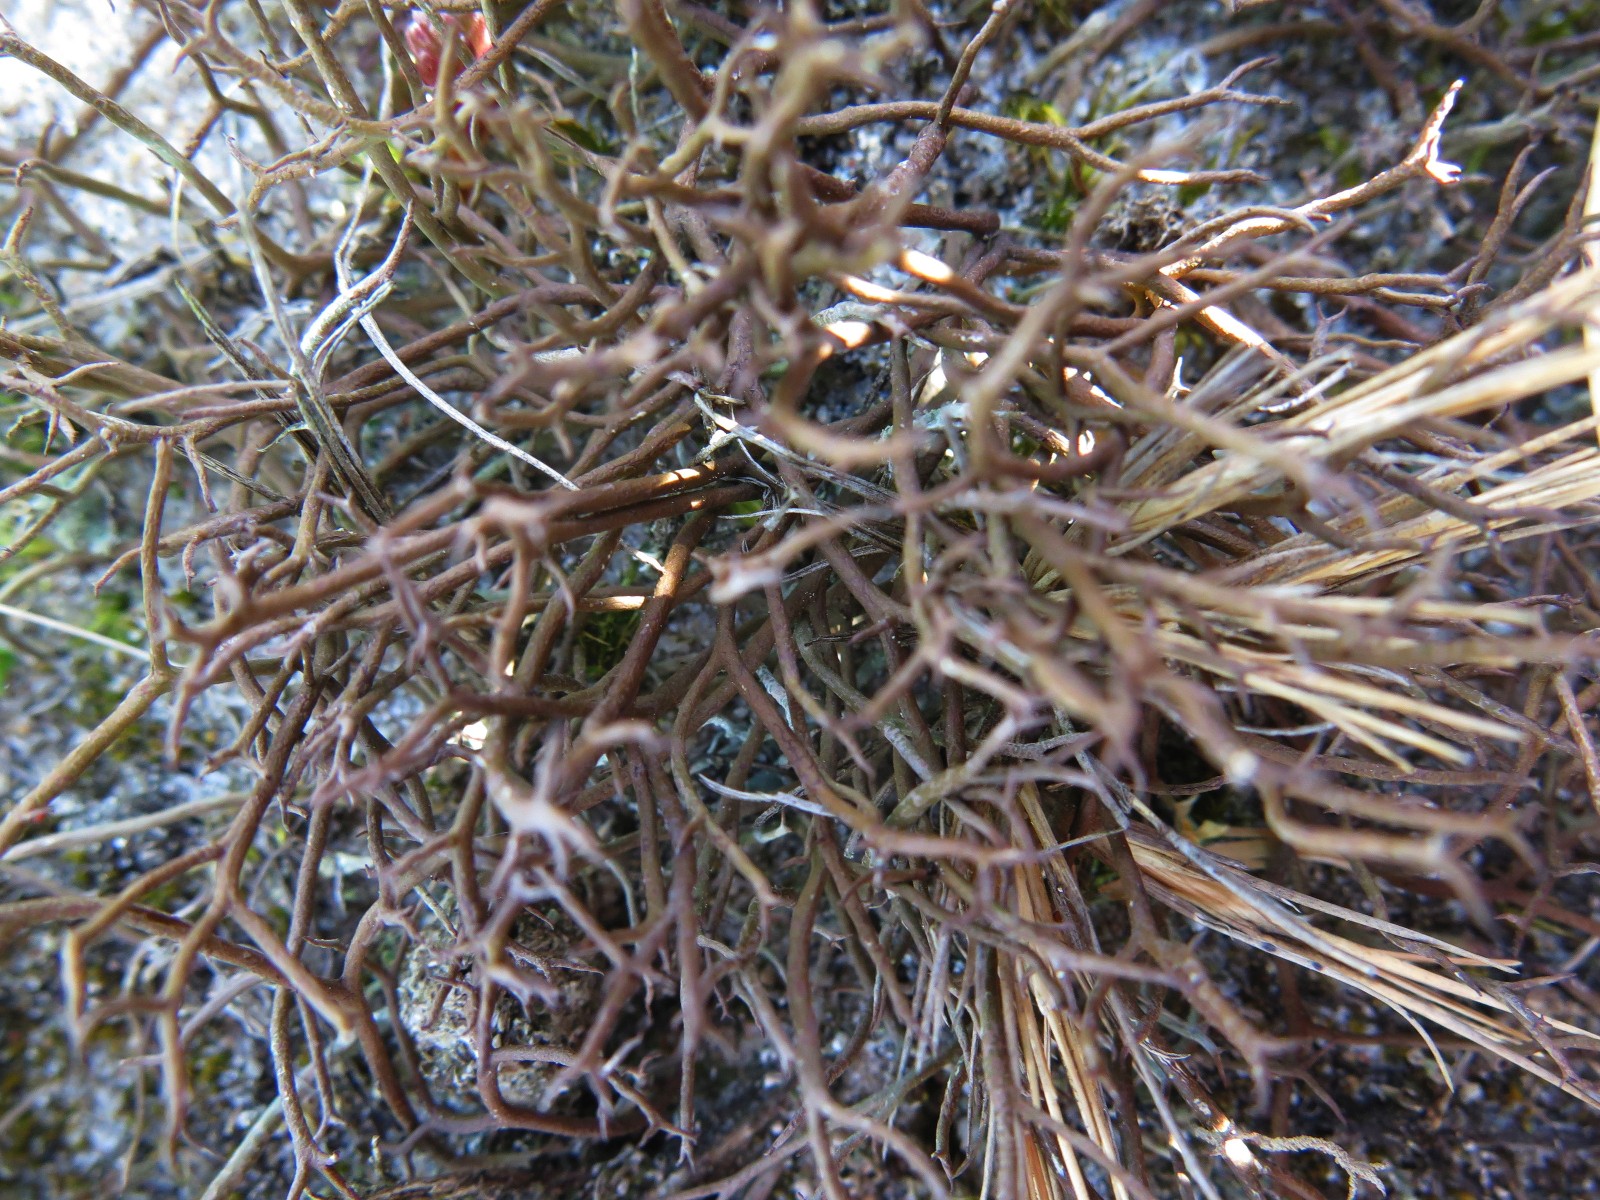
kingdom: Fungi
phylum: Ascomycota
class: Lecanoromycetes
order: Lecanorales
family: Cladoniaceae
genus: Cladonia
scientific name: Cladonia furcata
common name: kløftet bægerlav
